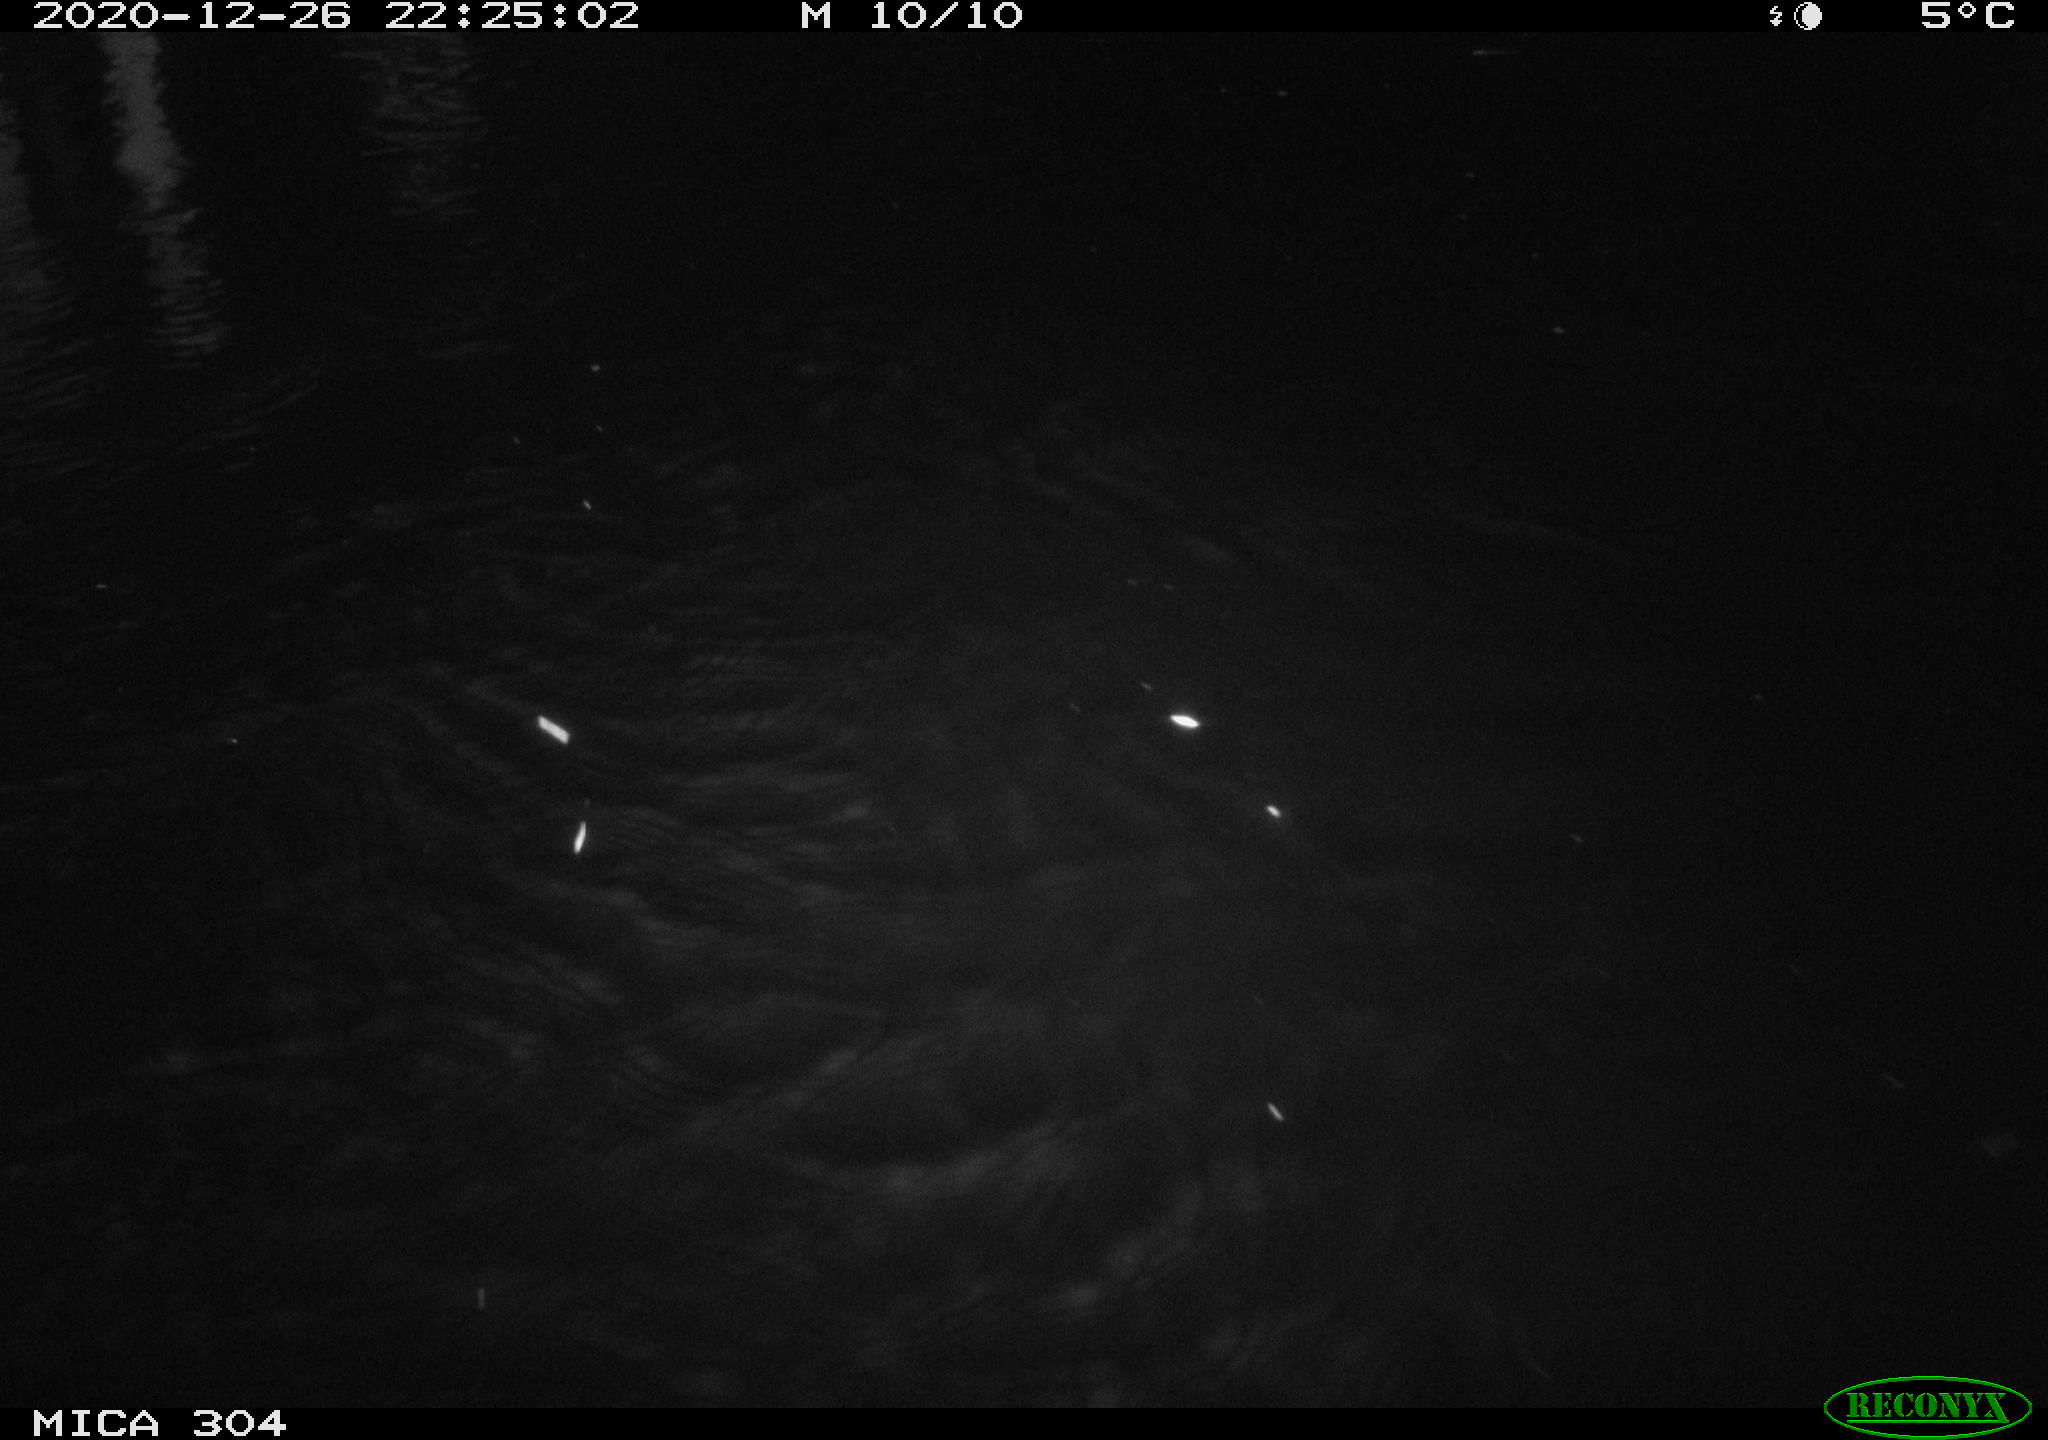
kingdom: Animalia
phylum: Chordata
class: Mammalia
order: Rodentia
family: Muridae
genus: Rattus
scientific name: Rattus norvegicus
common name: Brown rat
